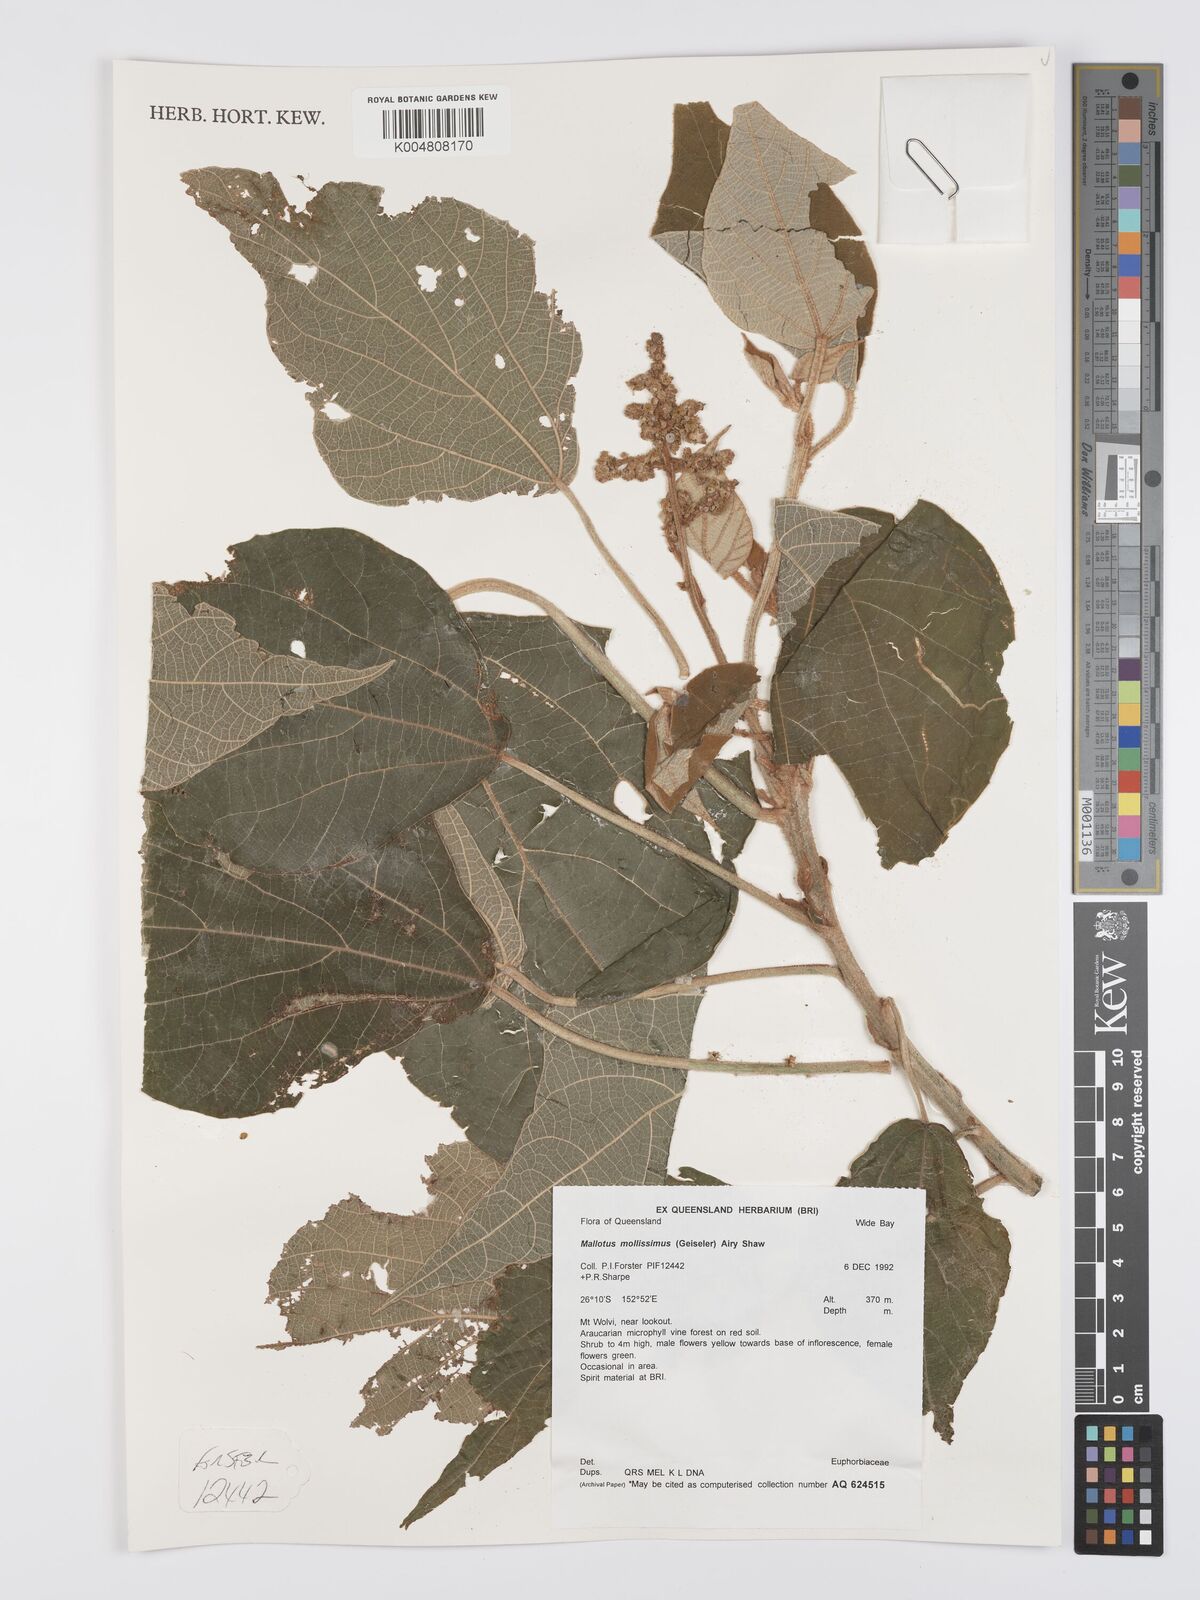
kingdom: Plantae
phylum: Tracheophyta
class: Magnoliopsida
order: Malpighiales
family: Euphorbiaceae
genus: Mallotus
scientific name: Mallotus mollissimus
